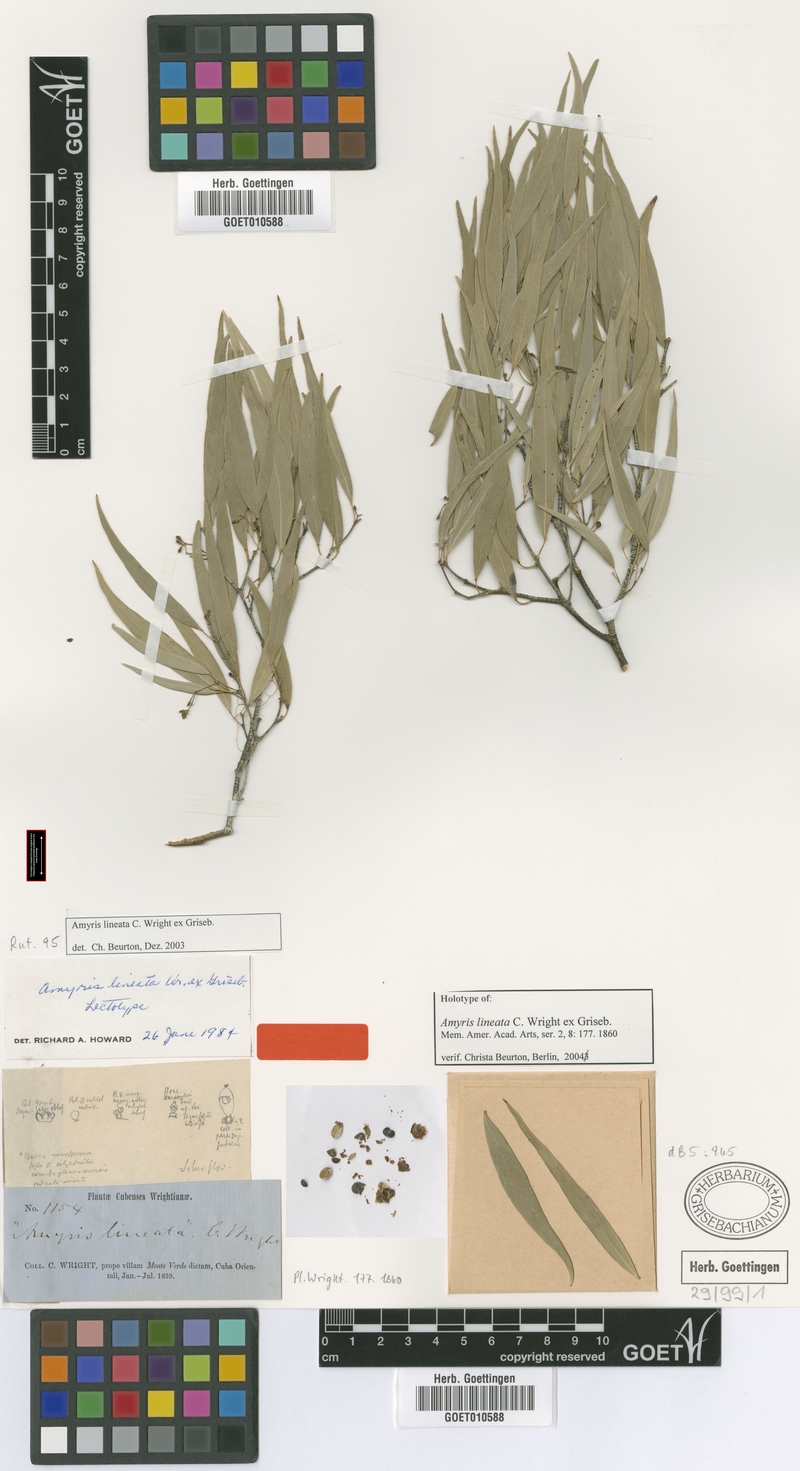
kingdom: Plantae
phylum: Tracheophyta
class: Magnoliopsida
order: Sapindales
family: Rutaceae
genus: Amyris
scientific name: Amyris lineata
